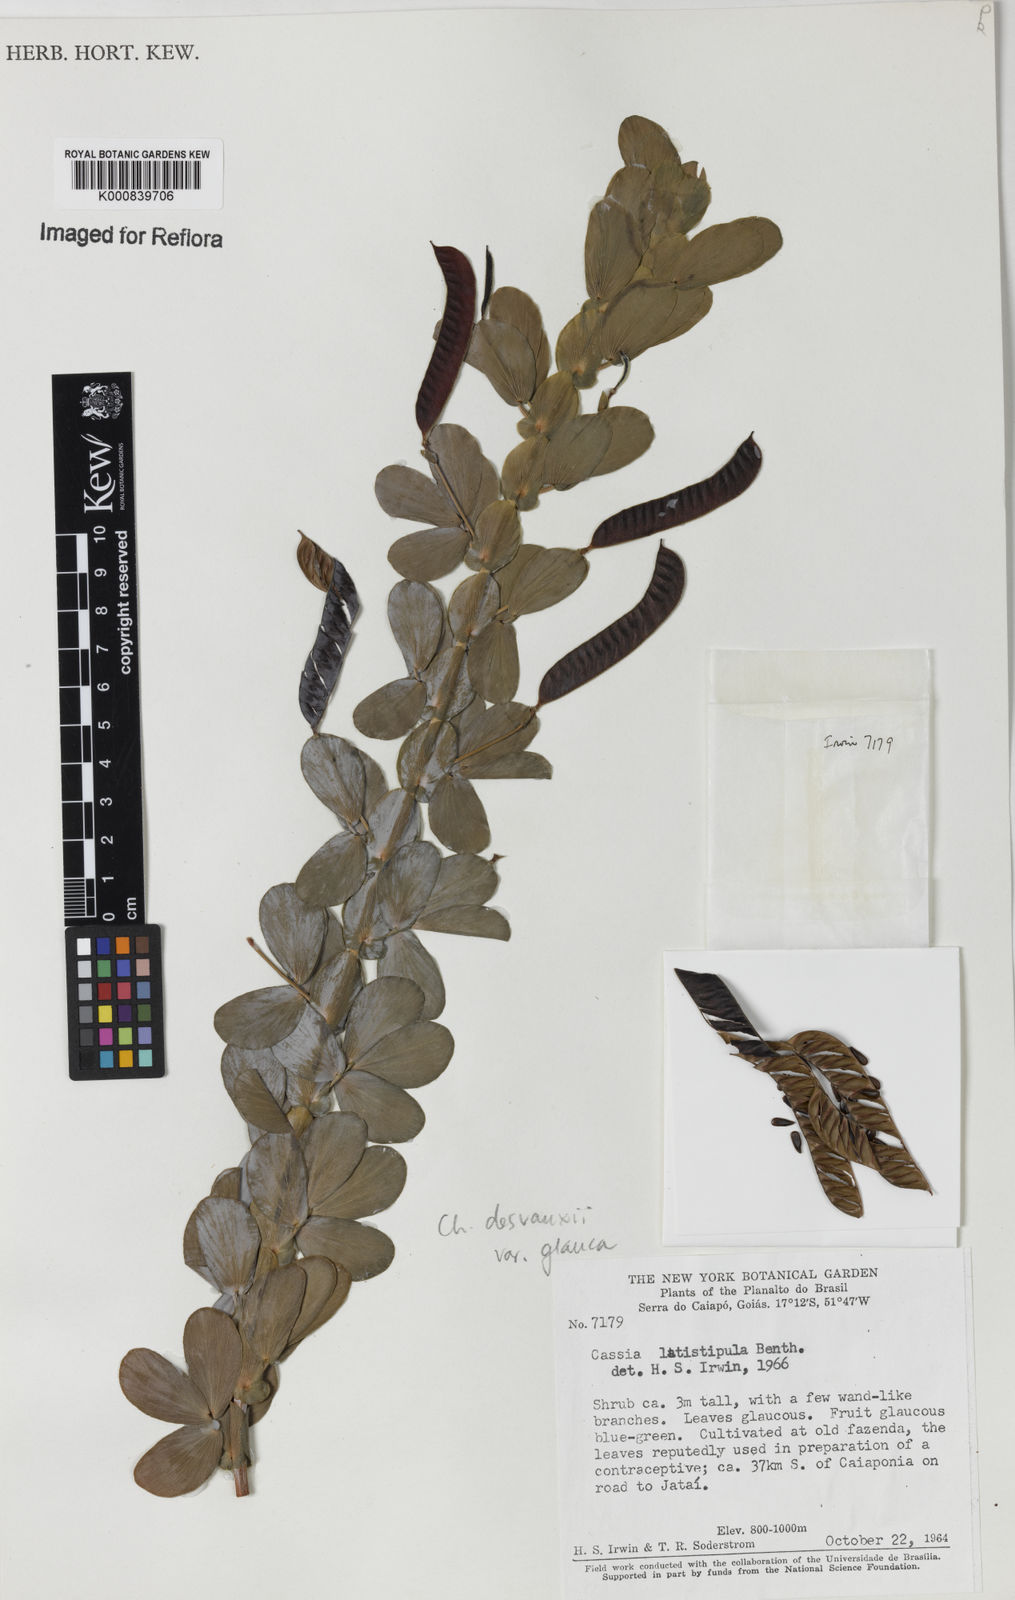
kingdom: Plantae
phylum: Tracheophyta
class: Magnoliopsida
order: Fabales
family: Fabaceae
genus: Chamaecrista
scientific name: Chamaecrista desvauxii
